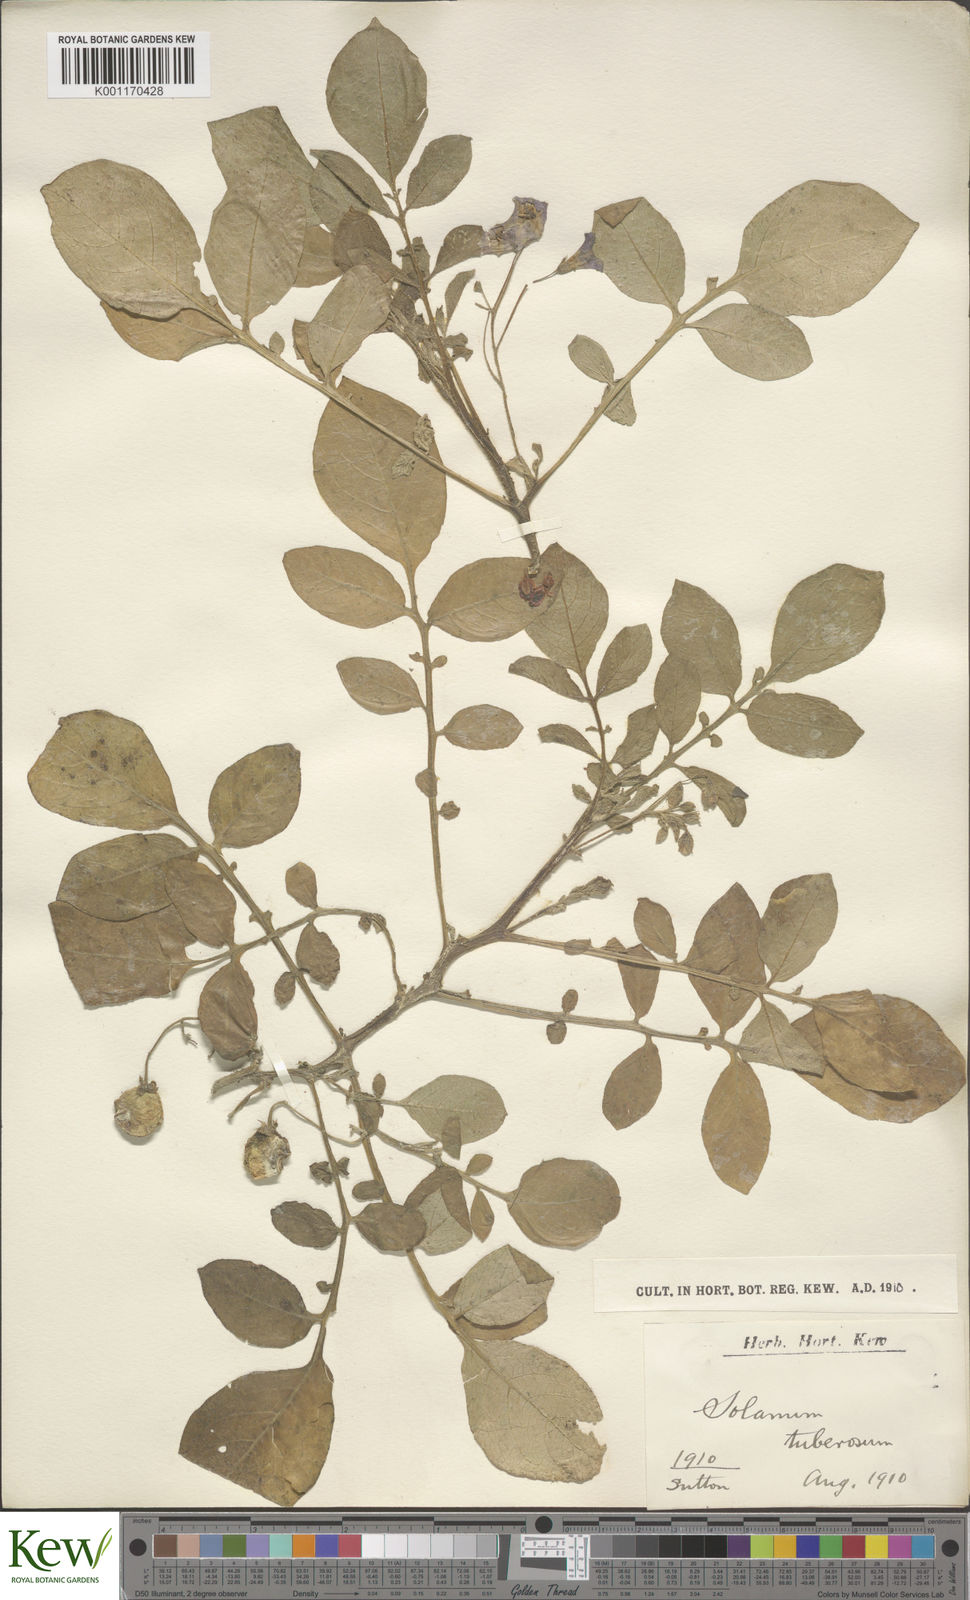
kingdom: Plantae
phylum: Tracheophyta
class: Magnoliopsida
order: Solanales
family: Solanaceae
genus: Solanum
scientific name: Solanum tuberosum
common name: Potato
